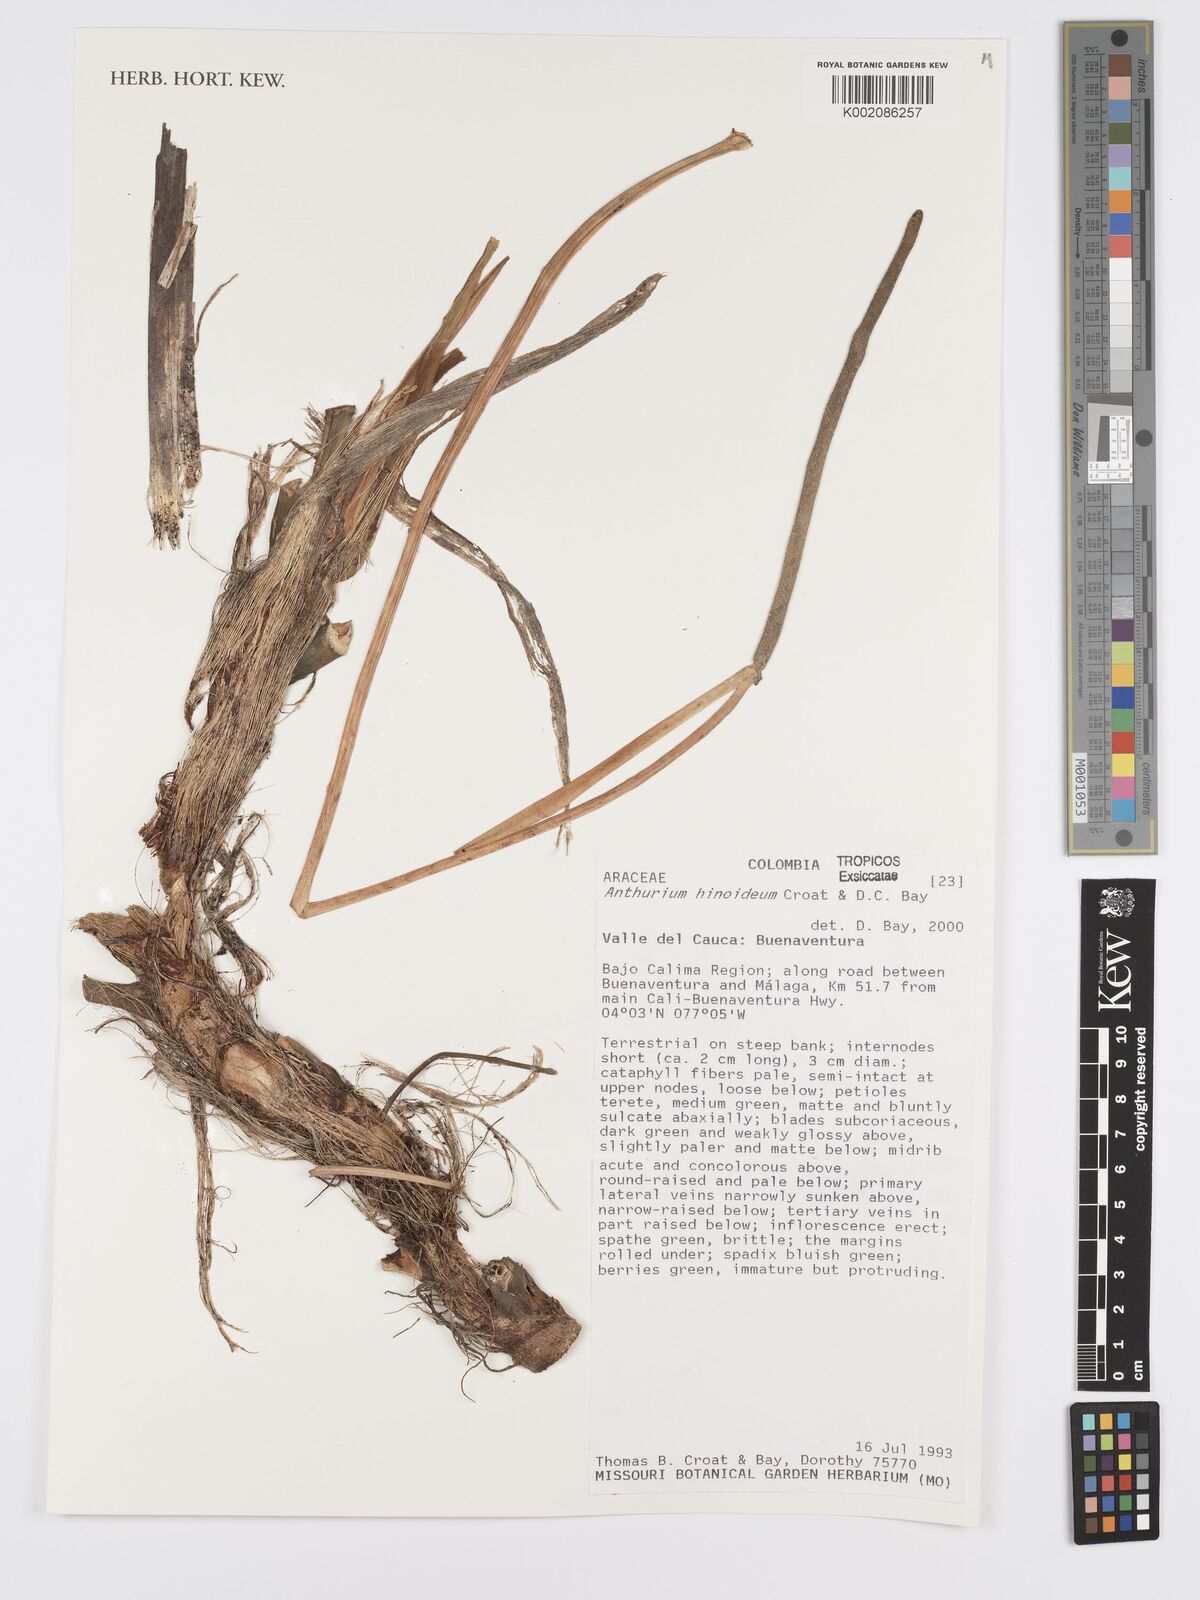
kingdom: Plantae
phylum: Tracheophyta
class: Liliopsida
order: Alismatales
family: Araceae
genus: Anthurium
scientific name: Anthurium hinoideum
